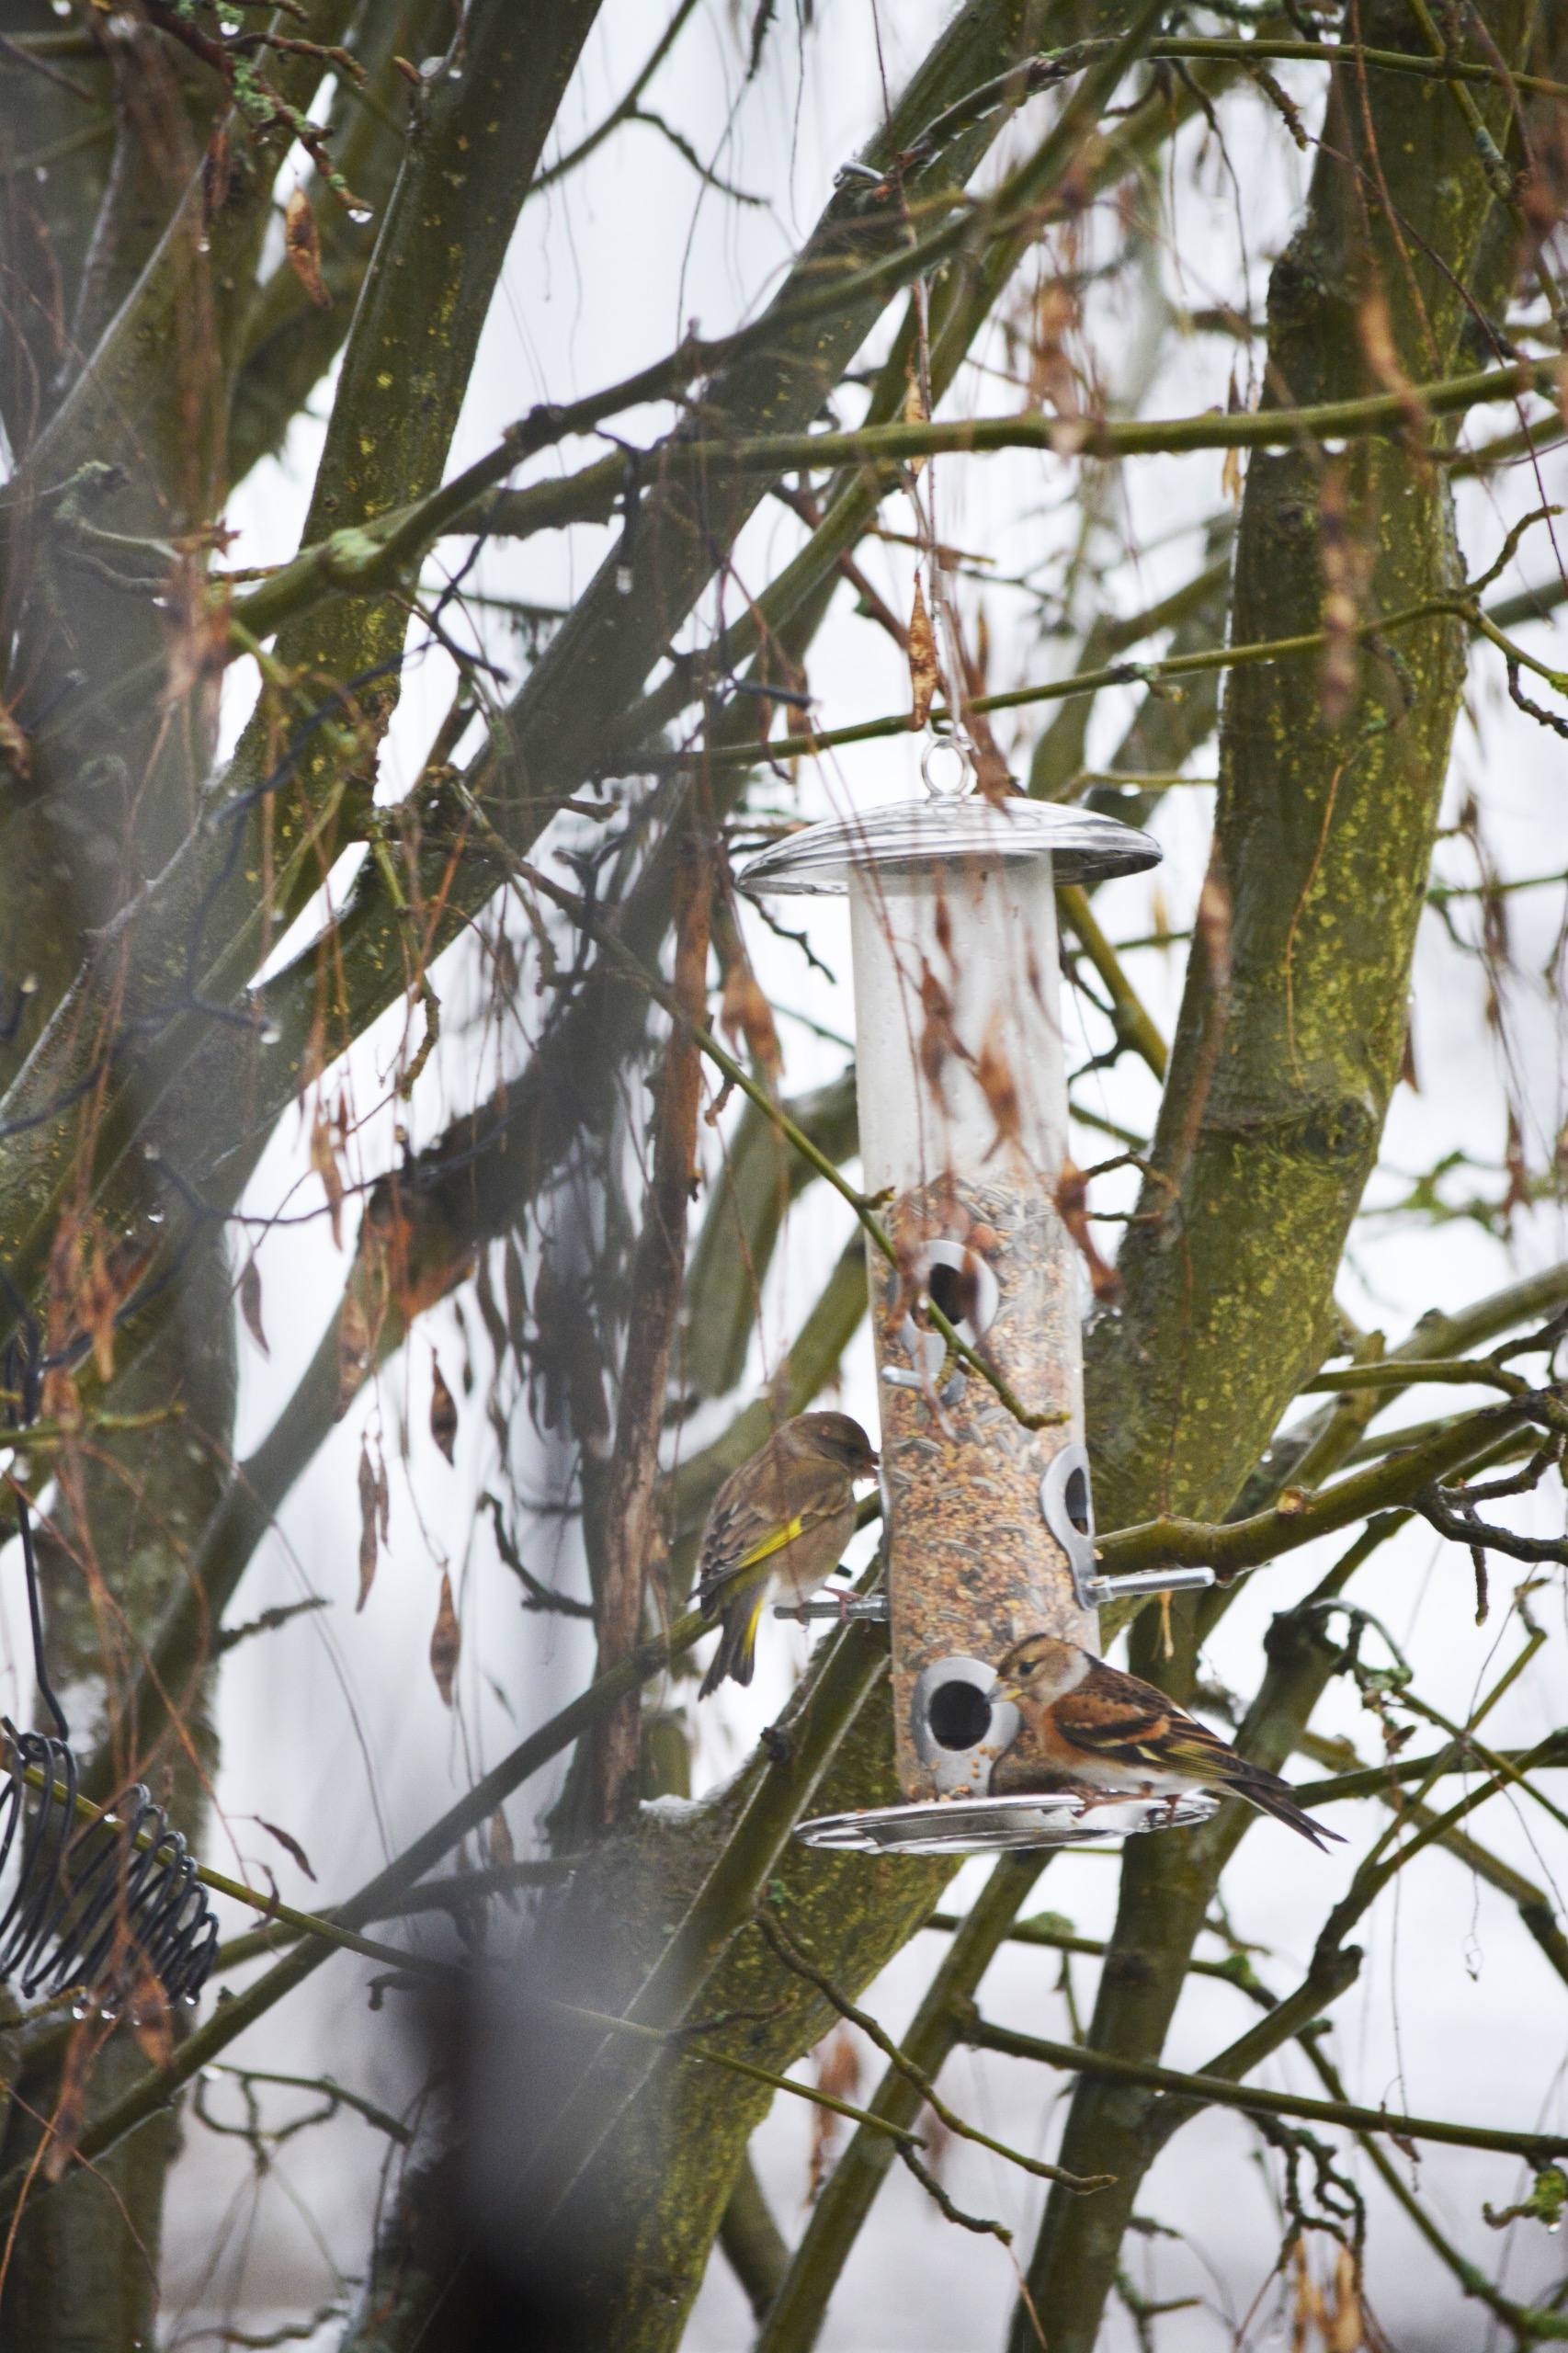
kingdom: Animalia
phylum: Chordata
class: Aves
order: Passeriformes
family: Fringillidae
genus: Fringilla
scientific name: Fringilla montifringilla
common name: Kvækerfinke
